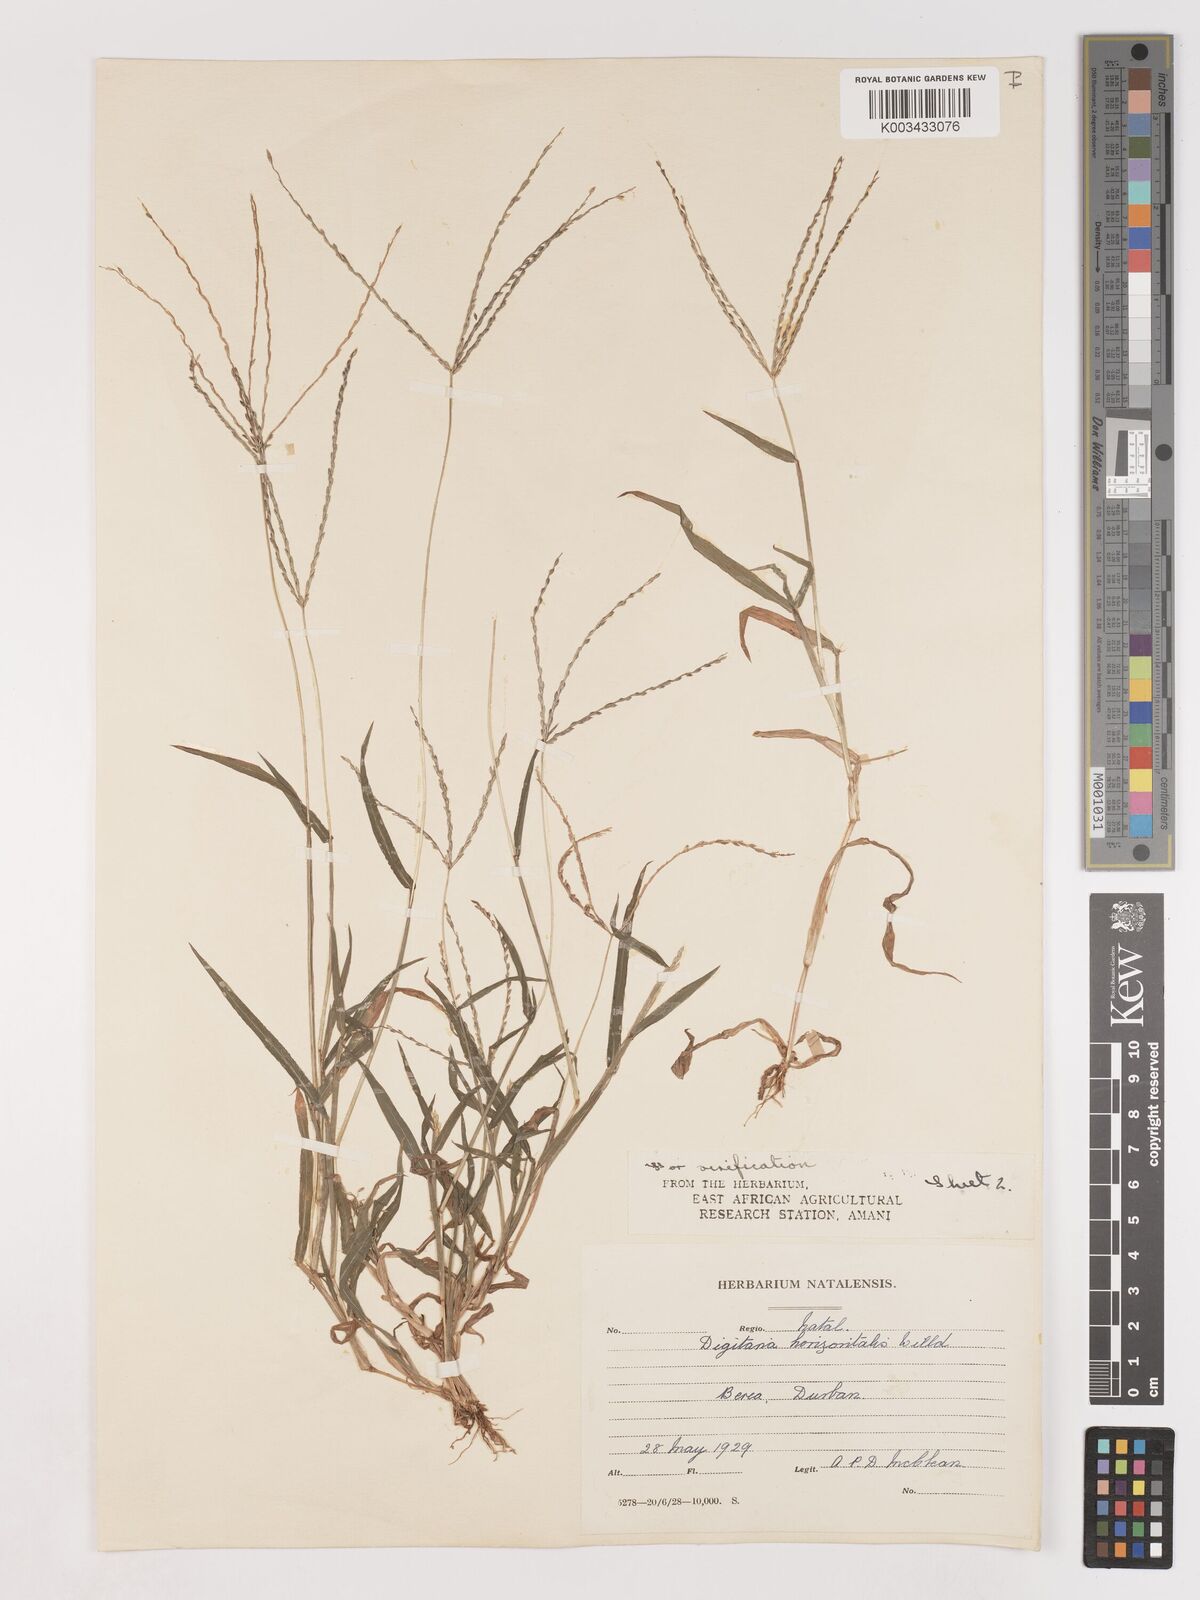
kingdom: Plantae
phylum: Tracheophyta
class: Liliopsida
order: Poales
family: Poaceae
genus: Digitaria
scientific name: Digitaria velutina
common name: Long-plume finger grass
